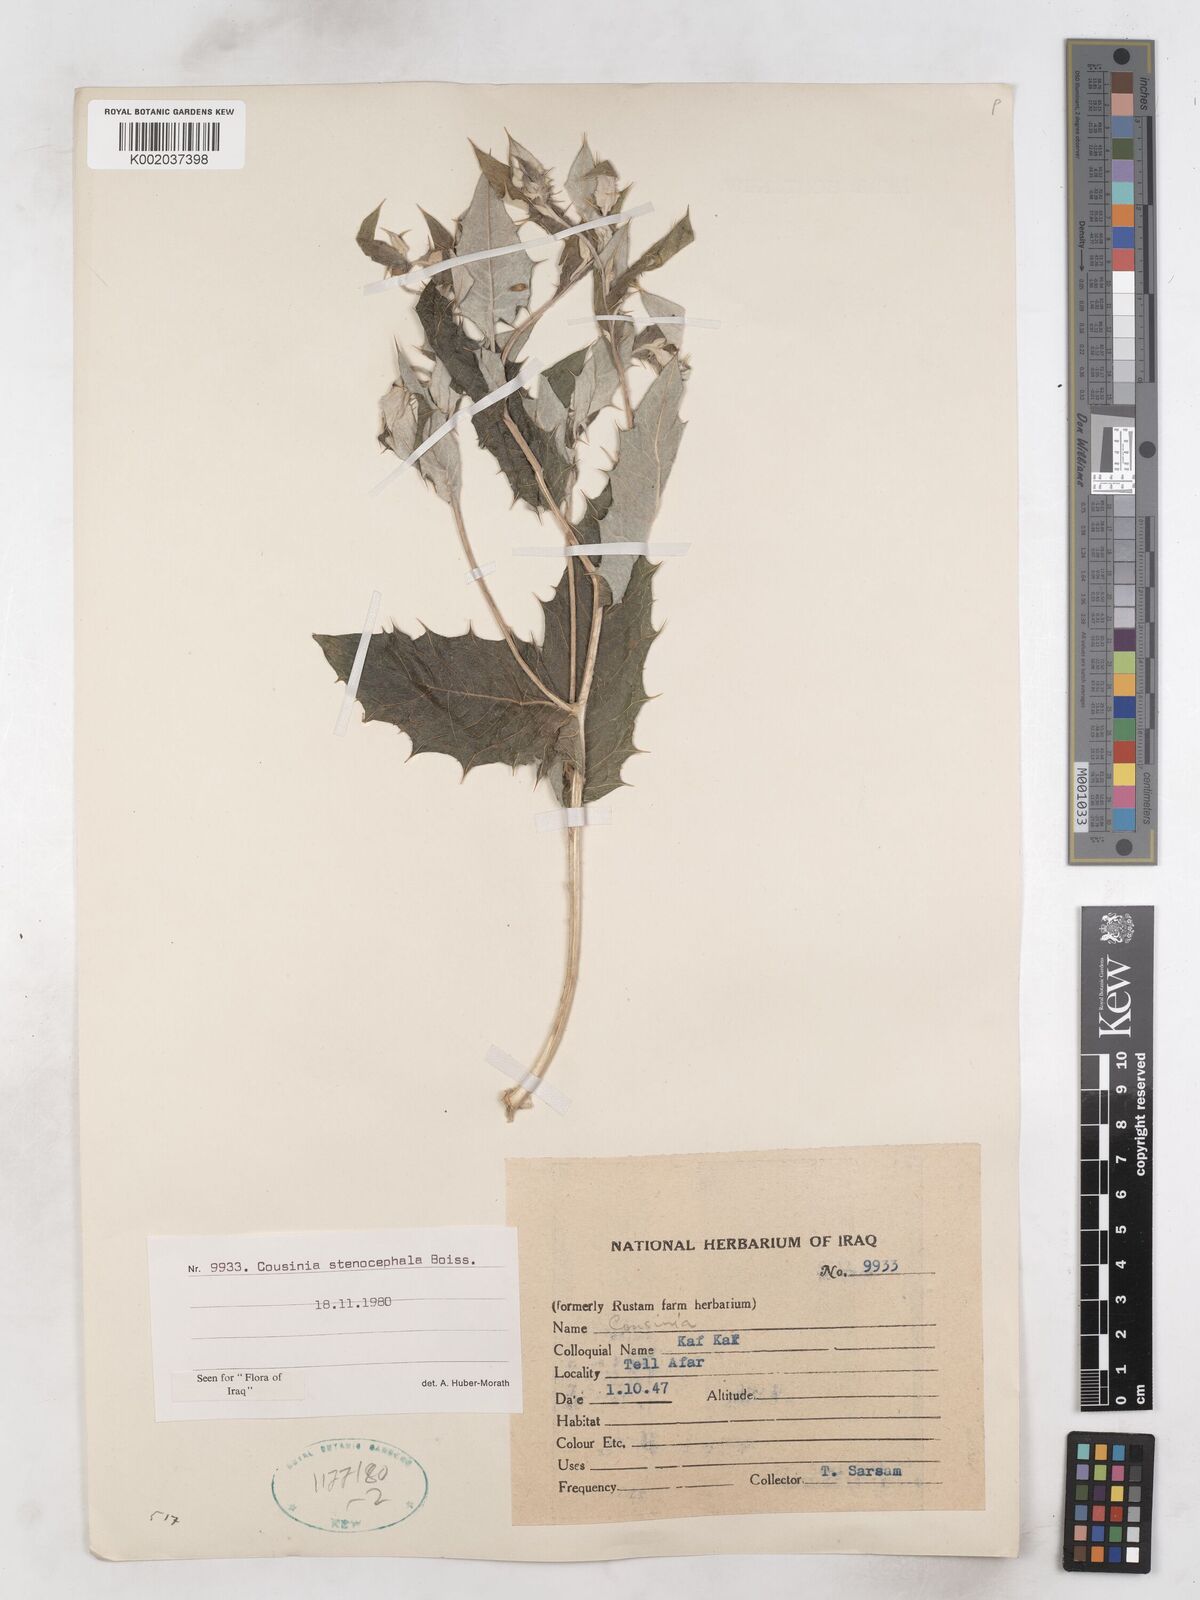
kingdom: Plantae
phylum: Tracheophyta
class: Magnoliopsida
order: Asterales
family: Asteraceae
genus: Cousinia
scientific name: Cousinia stenocephala
